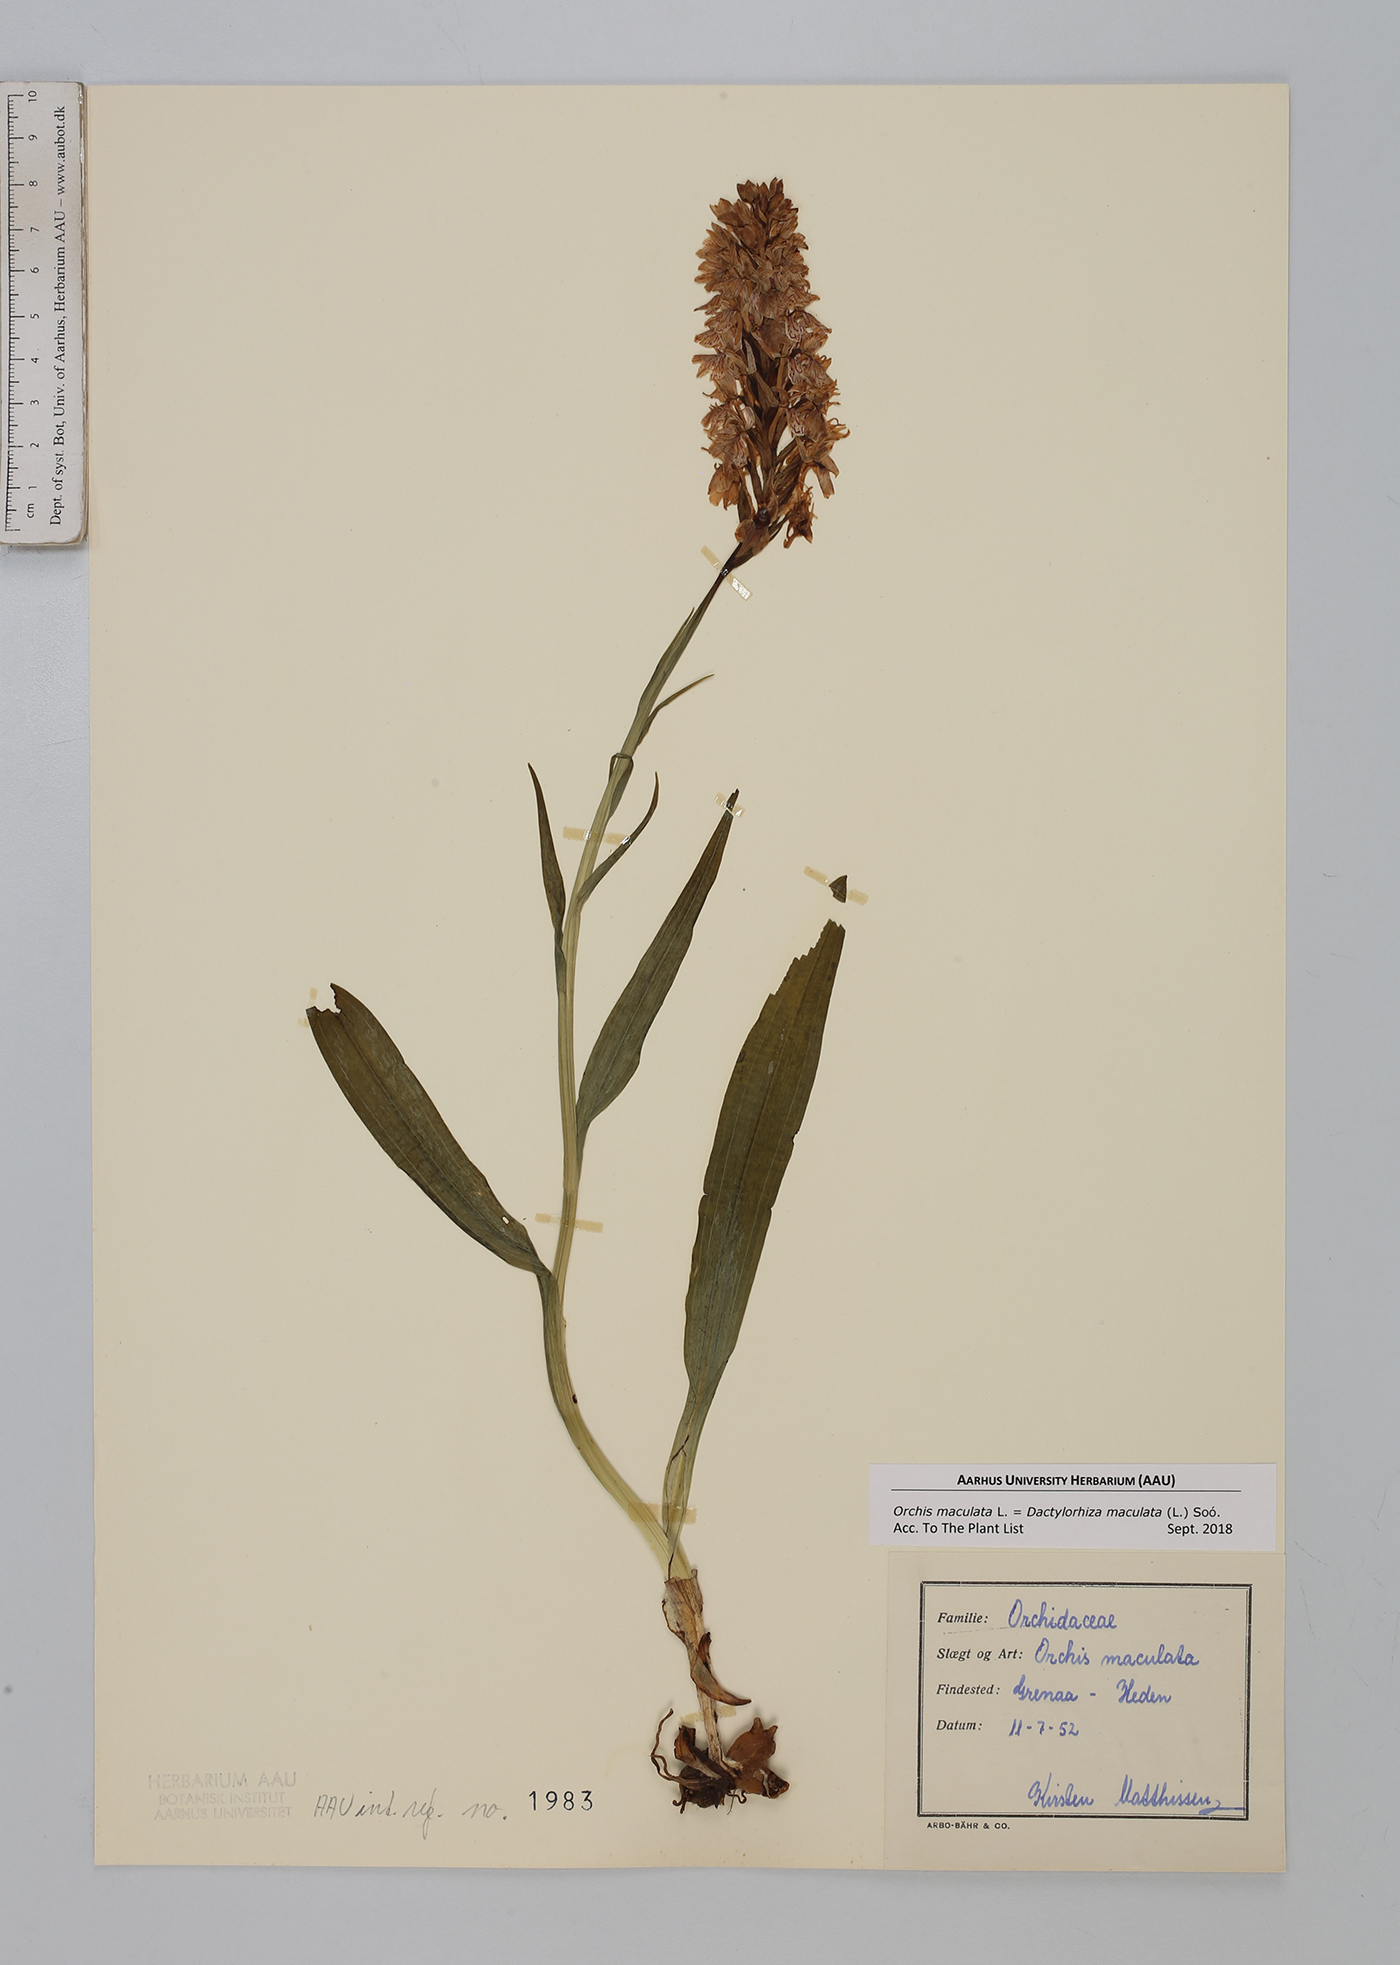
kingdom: Plantae
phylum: Tracheophyta
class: Liliopsida
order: Asparagales
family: Orchidaceae
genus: Dactylorhiza
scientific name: Dactylorhiza maculata
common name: Heath spotted-orchid
